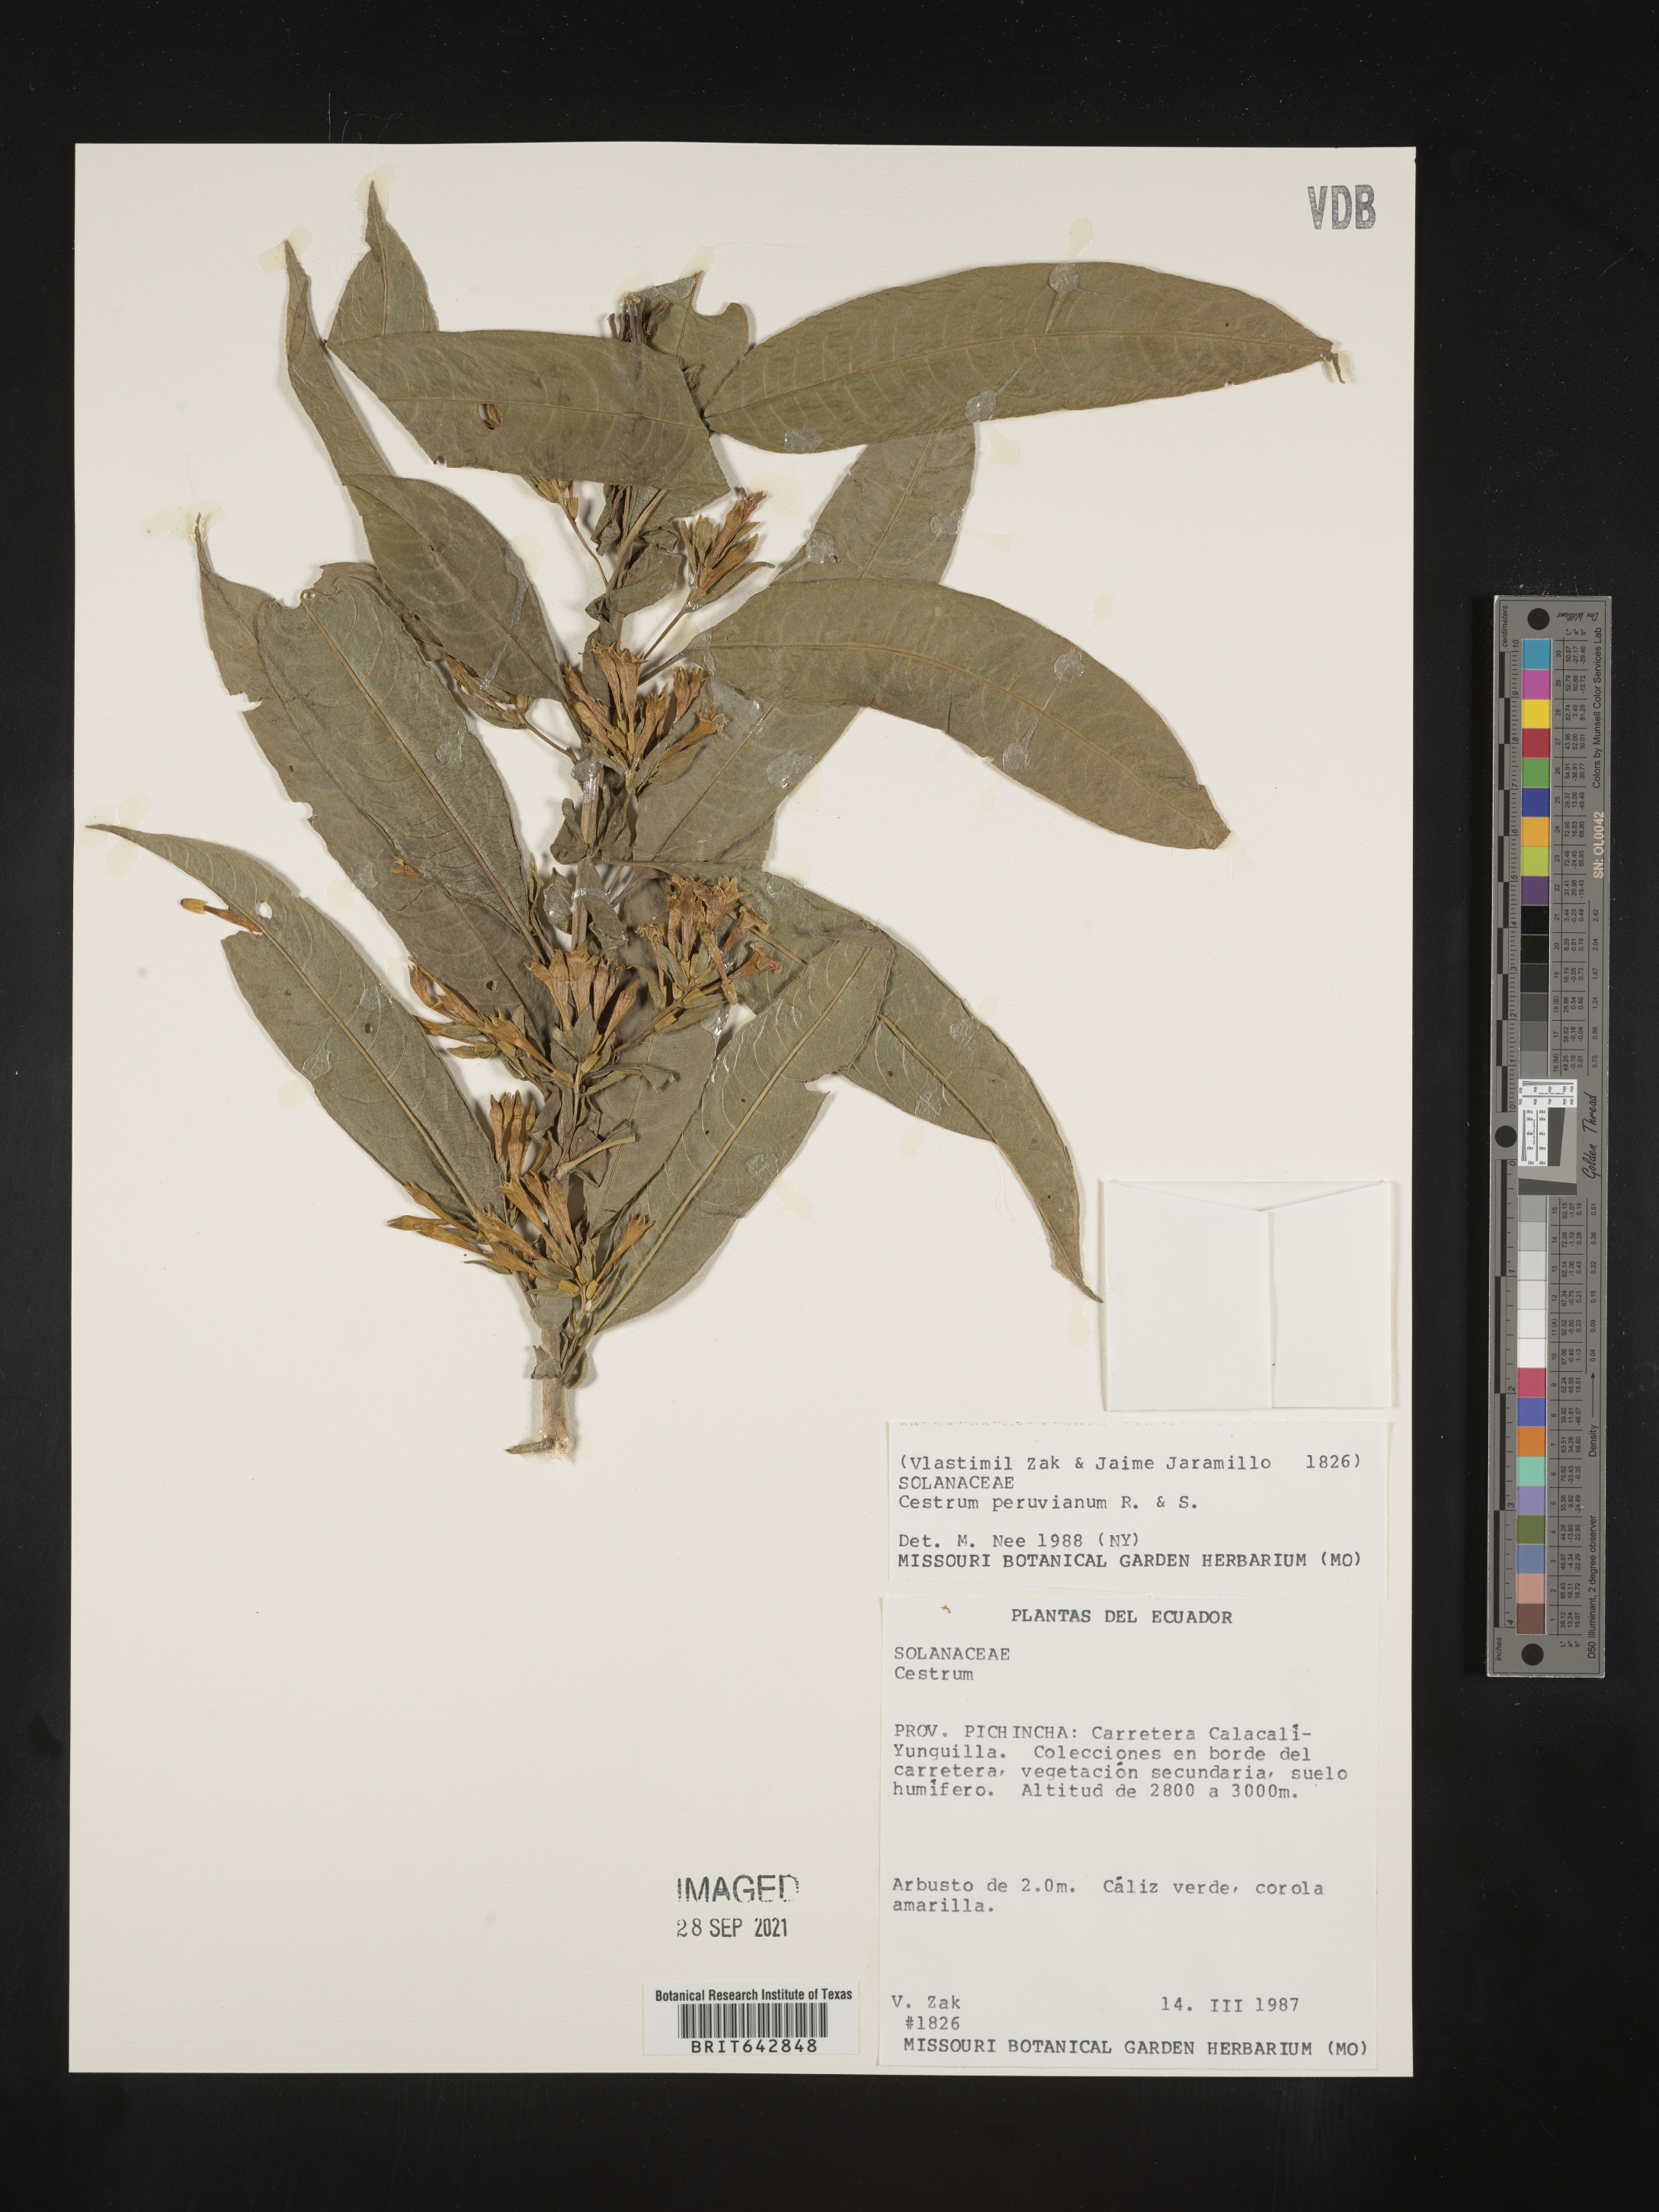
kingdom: Plantae
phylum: Tracheophyta
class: Magnoliopsida
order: Solanales
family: Solanaceae
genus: Cestrum
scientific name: Cestrum
